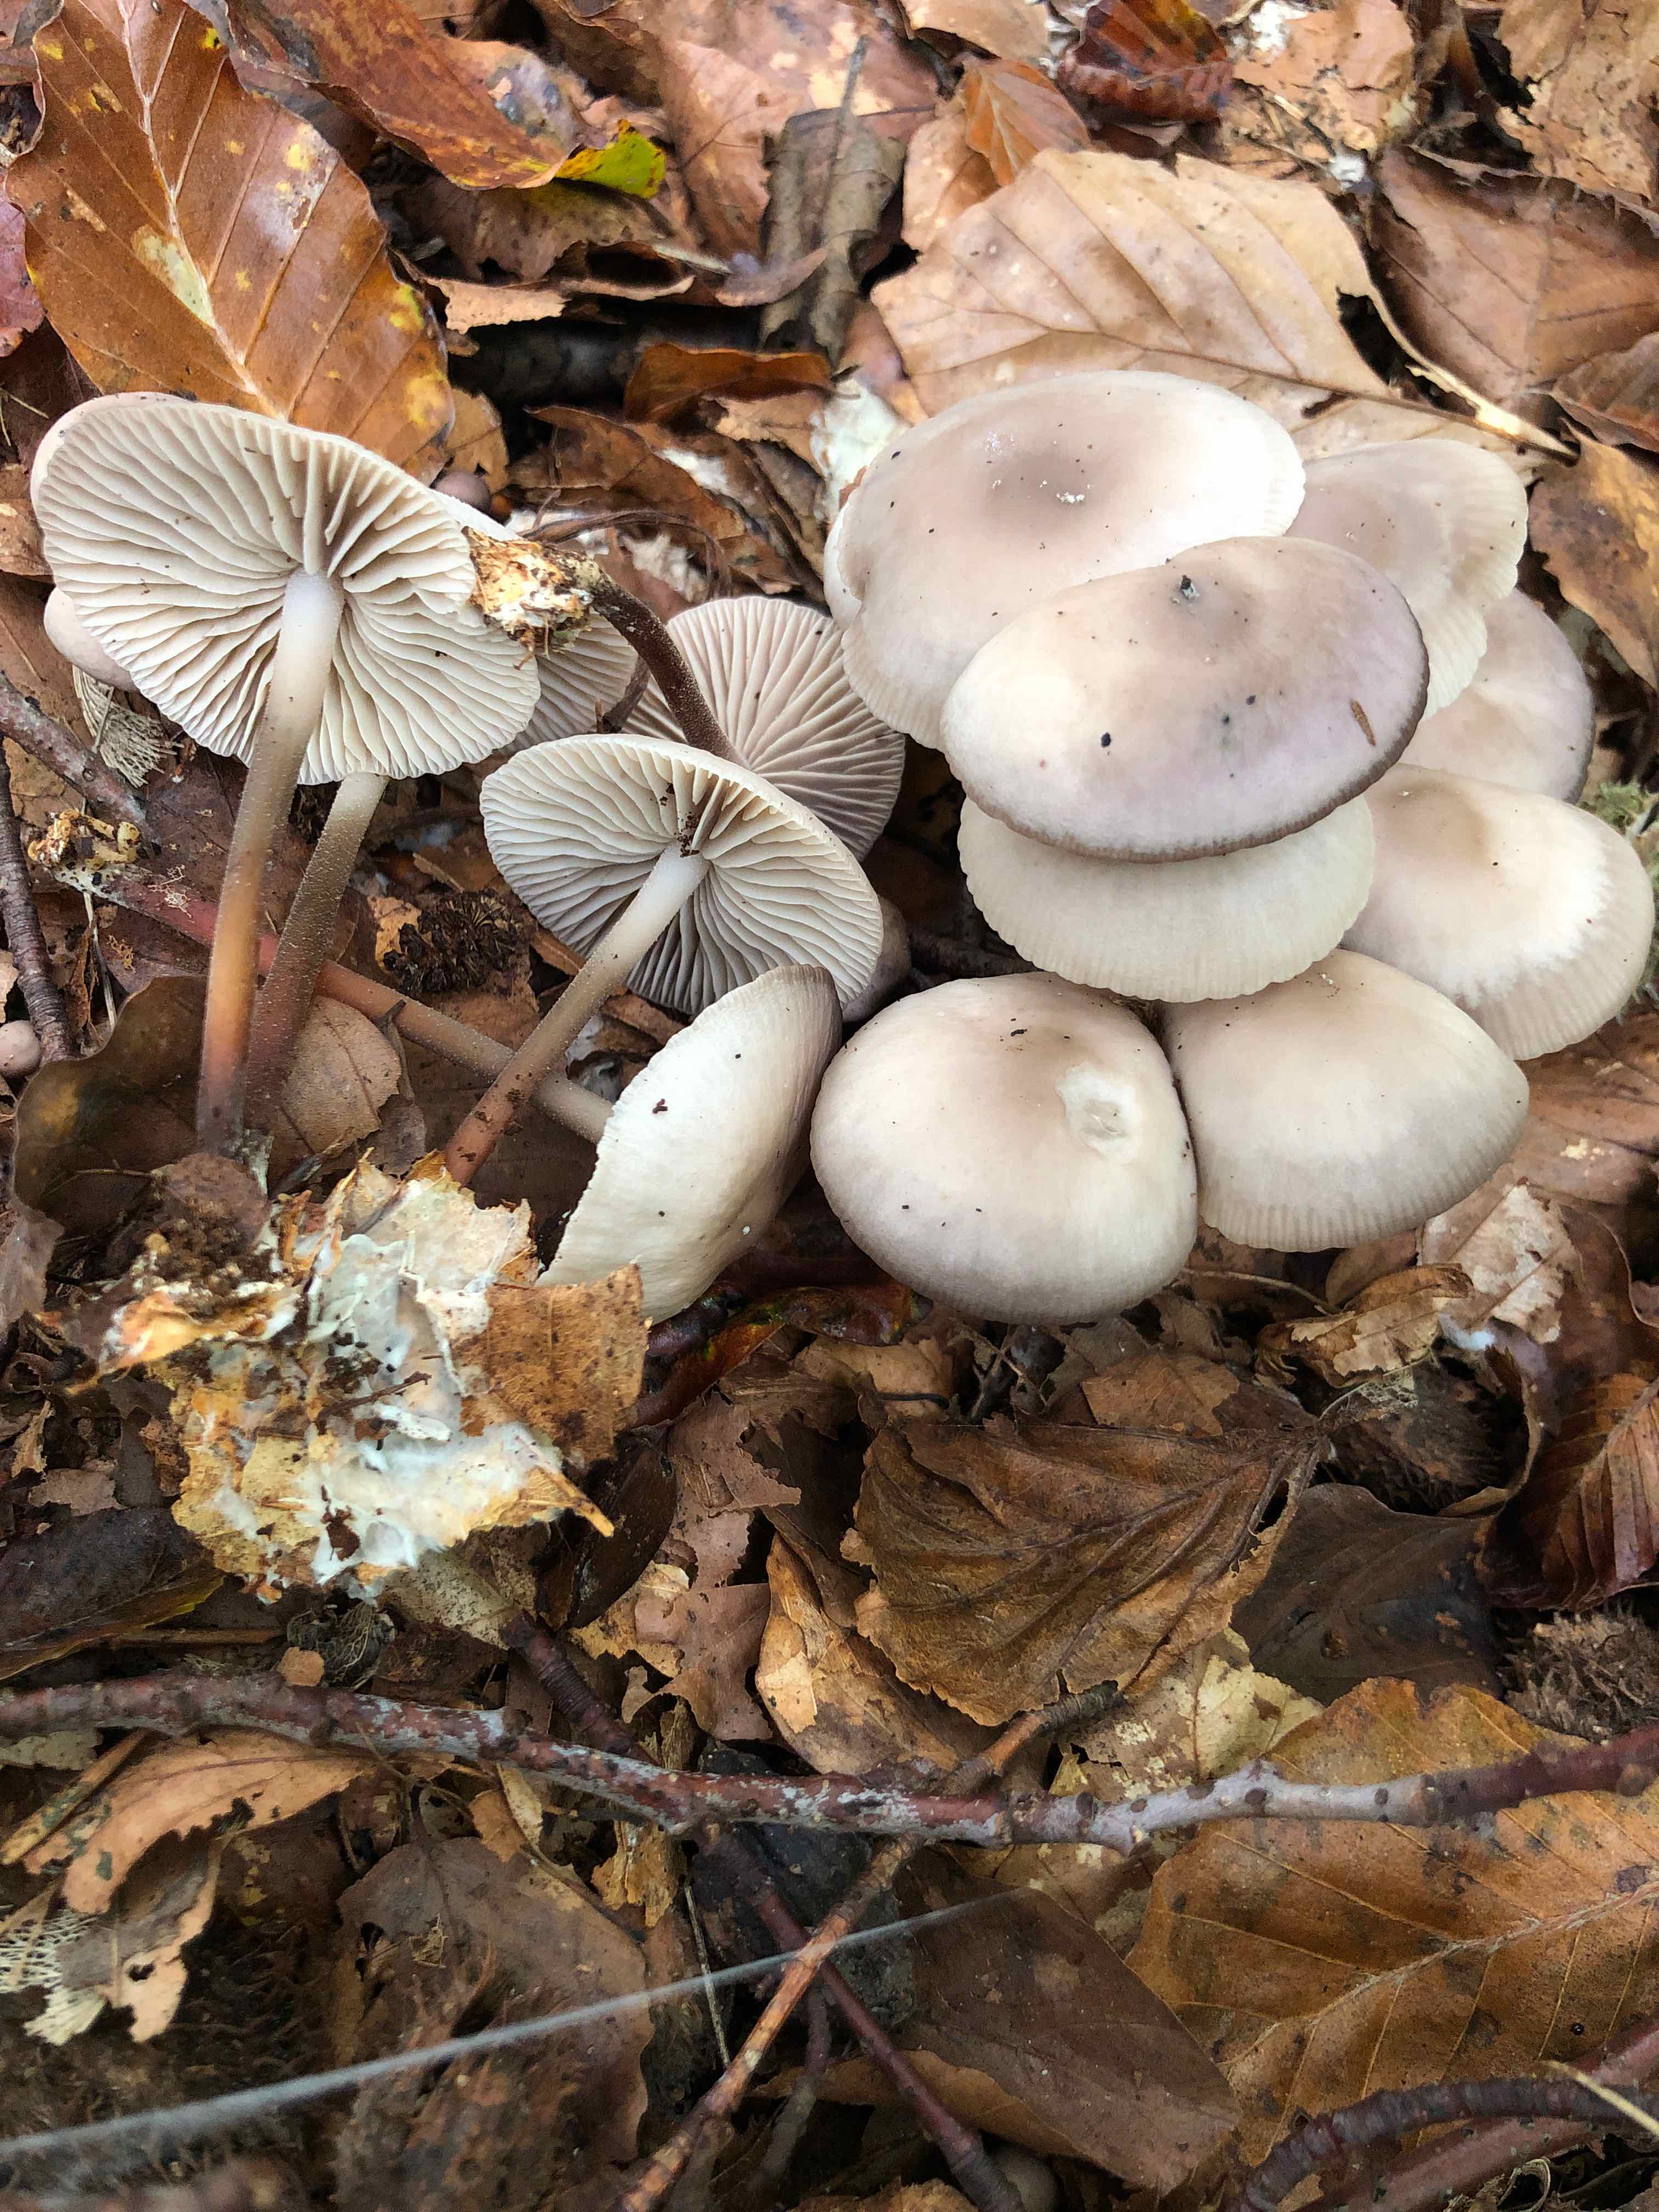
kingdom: Fungi
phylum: Basidiomycota
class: Agaricomycetes
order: Agaricales
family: Marasmiaceae
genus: Marasmius
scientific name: Marasmius wynneae
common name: hvælvet bruskhat
